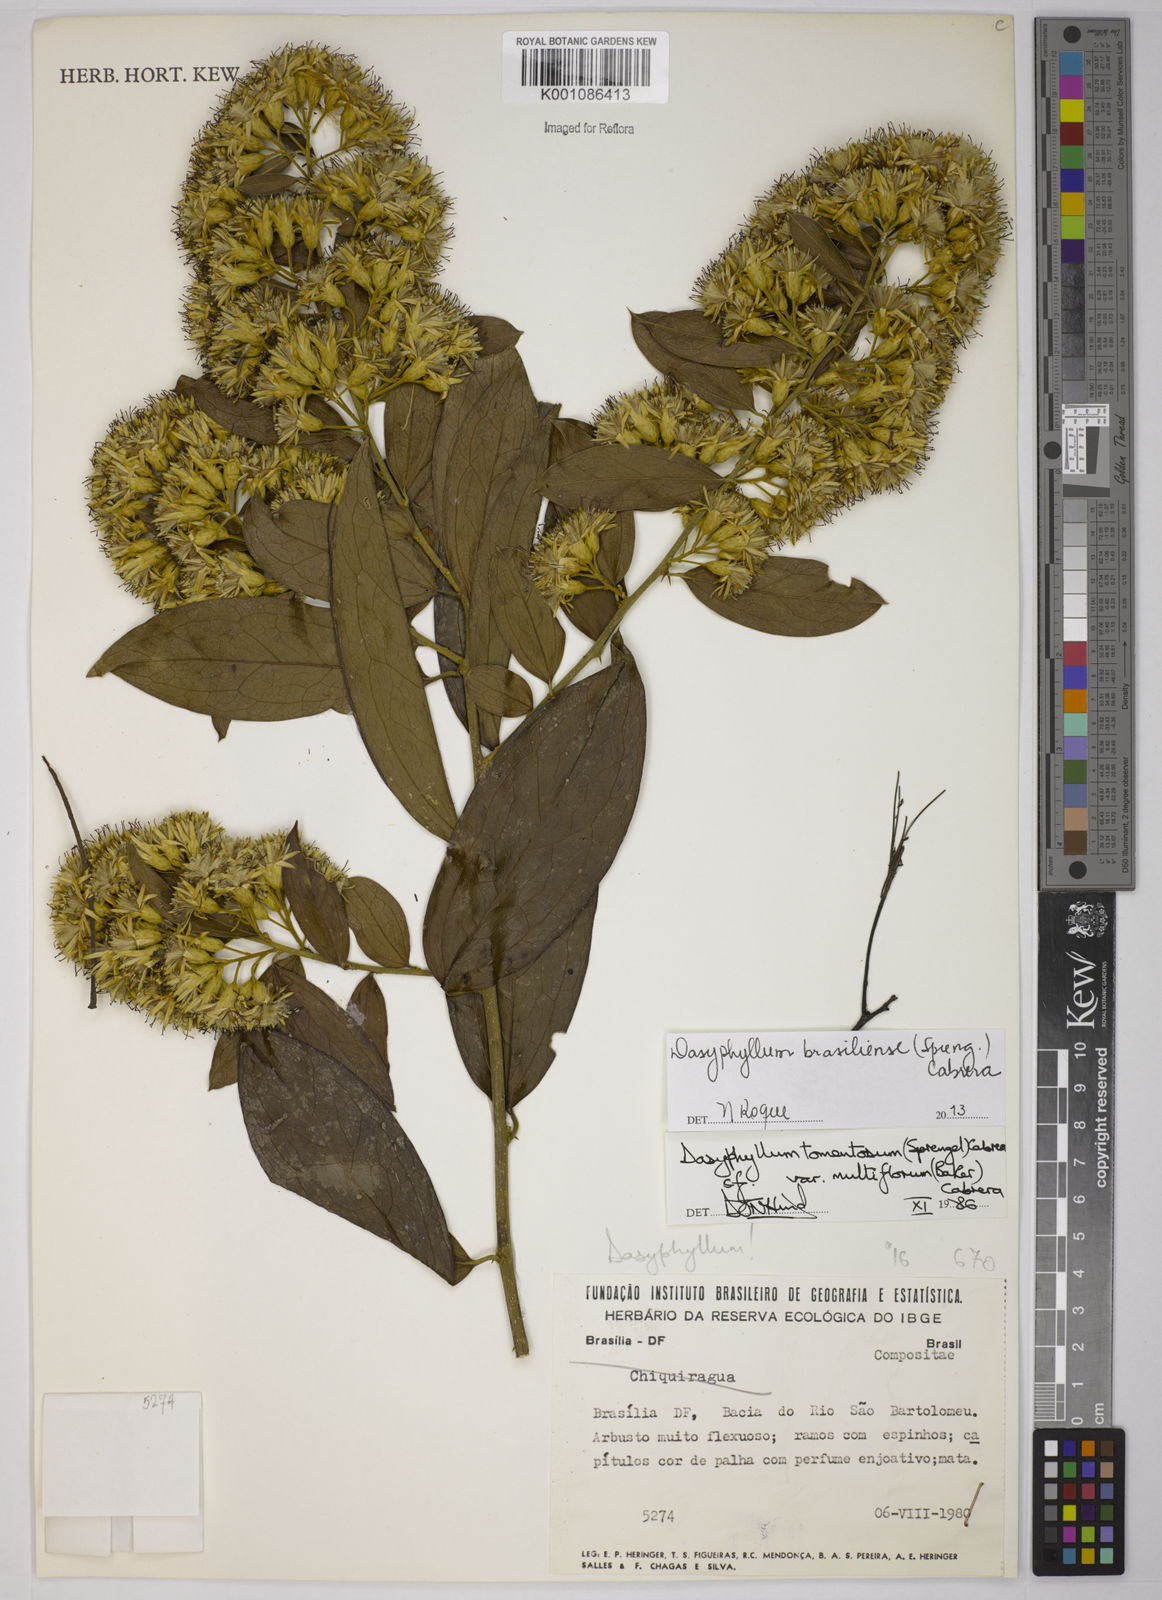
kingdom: Plantae
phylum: Tracheophyta
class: Magnoliopsida
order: Asterales
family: Asteraceae
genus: Dasyphyllum
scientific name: Dasyphyllum brasiliense
